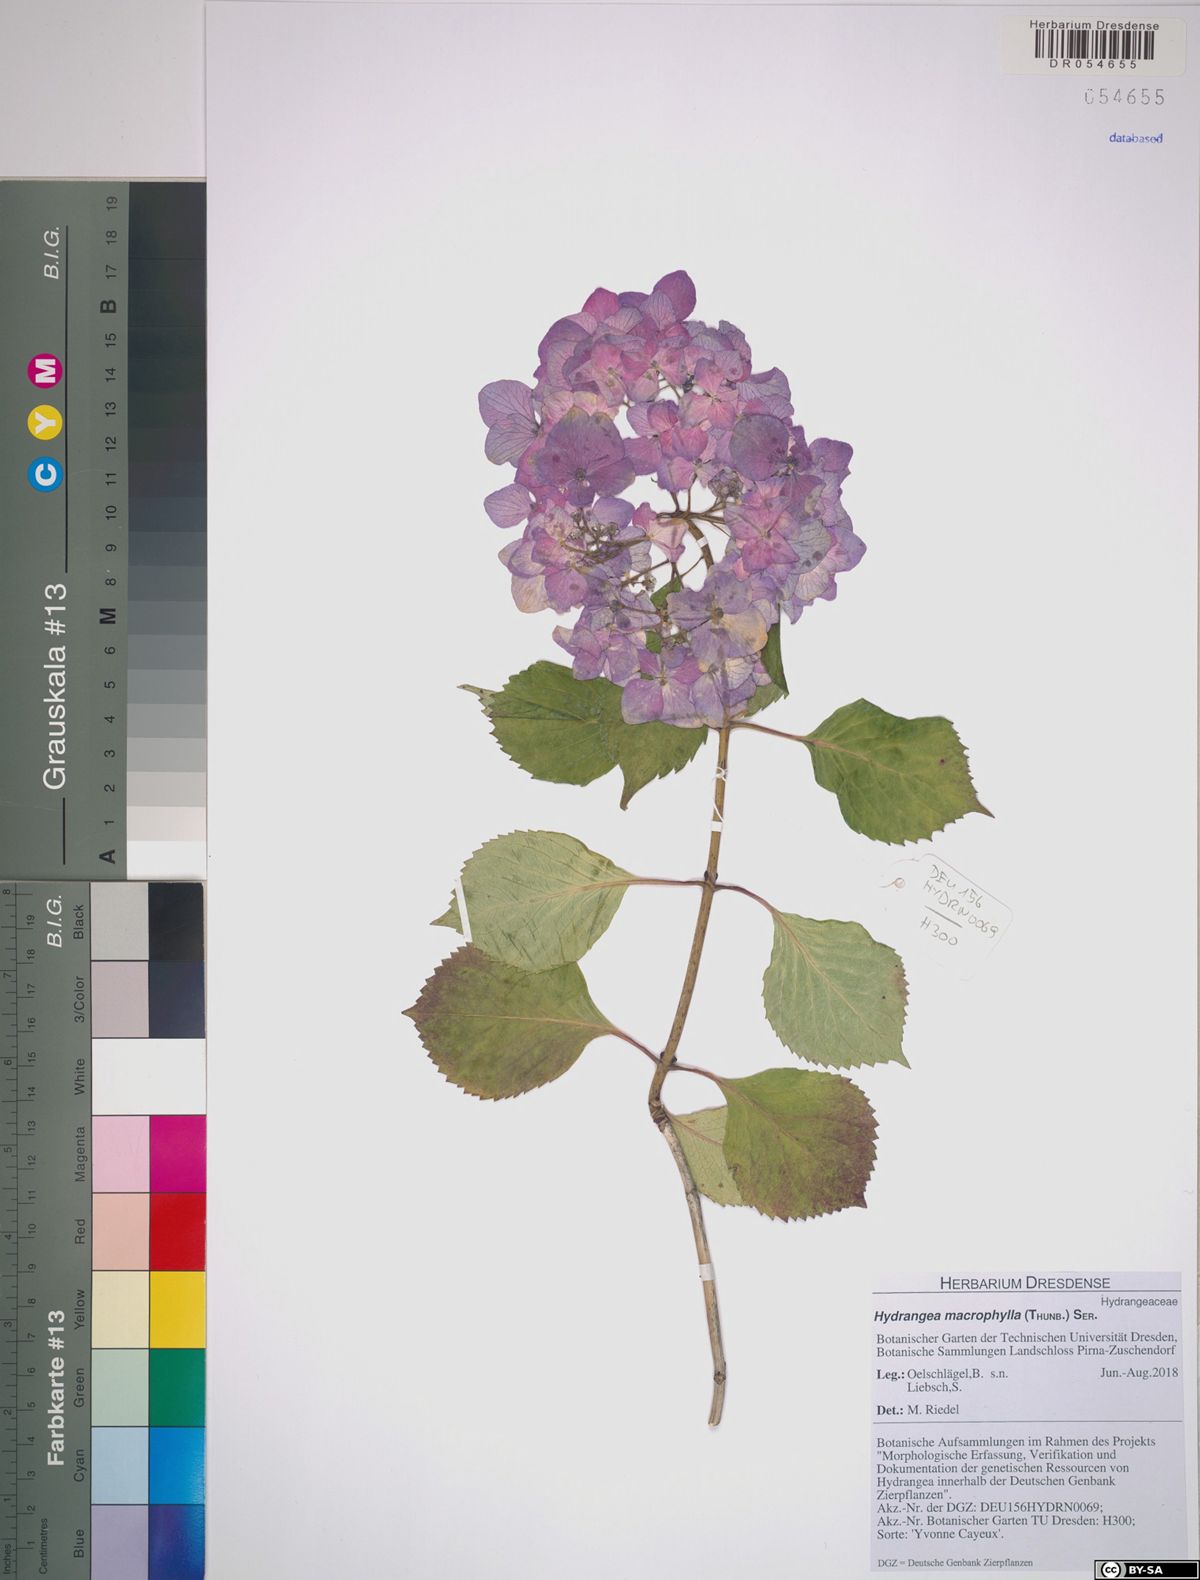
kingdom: Plantae
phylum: Tracheophyta
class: Magnoliopsida
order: Cornales
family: Hydrangeaceae
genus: Hydrangea
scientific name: Hydrangea macrophylla
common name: Hydrangea
